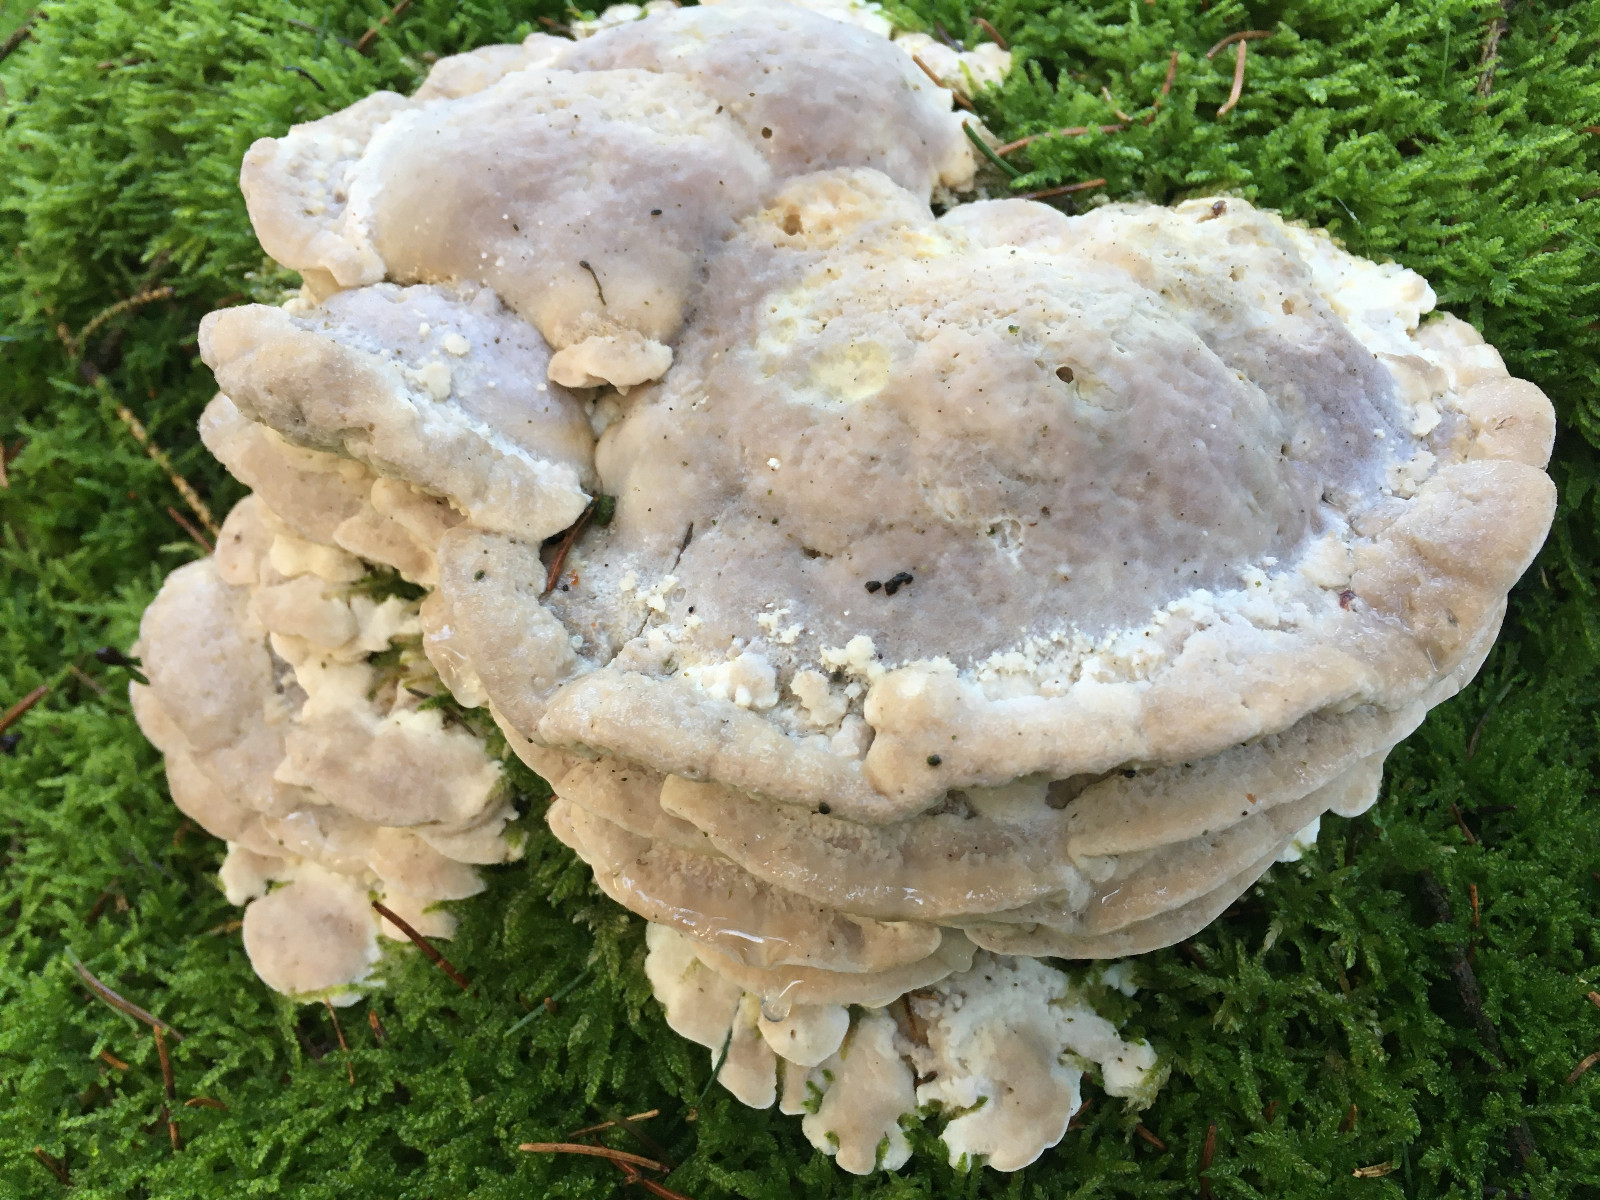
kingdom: Fungi
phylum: Basidiomycota
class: Agaricomycetes
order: Polyporales
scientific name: Polyporales
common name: poresvampordenen
